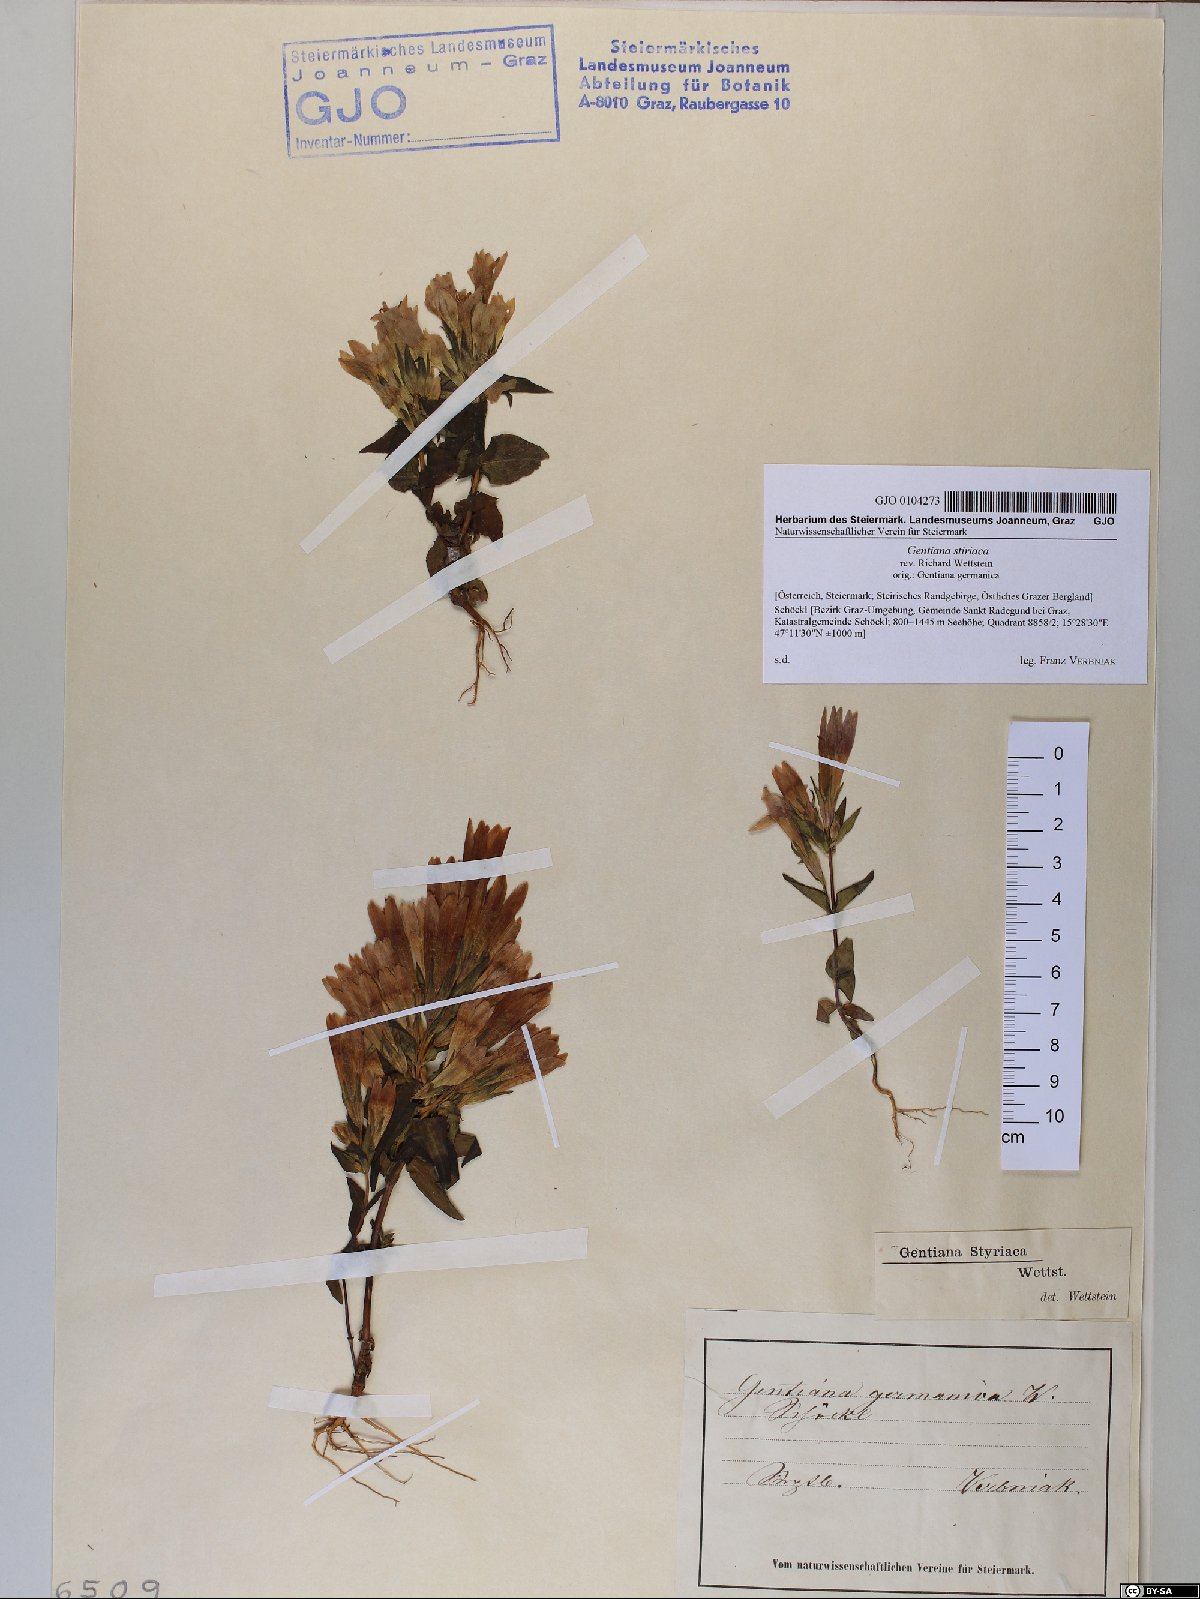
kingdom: Plantae
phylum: Tracheophyta
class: Magnoliopsida
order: Gentianales
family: Gentianaceae
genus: Gentianella
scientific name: Gentianella rhaetica
